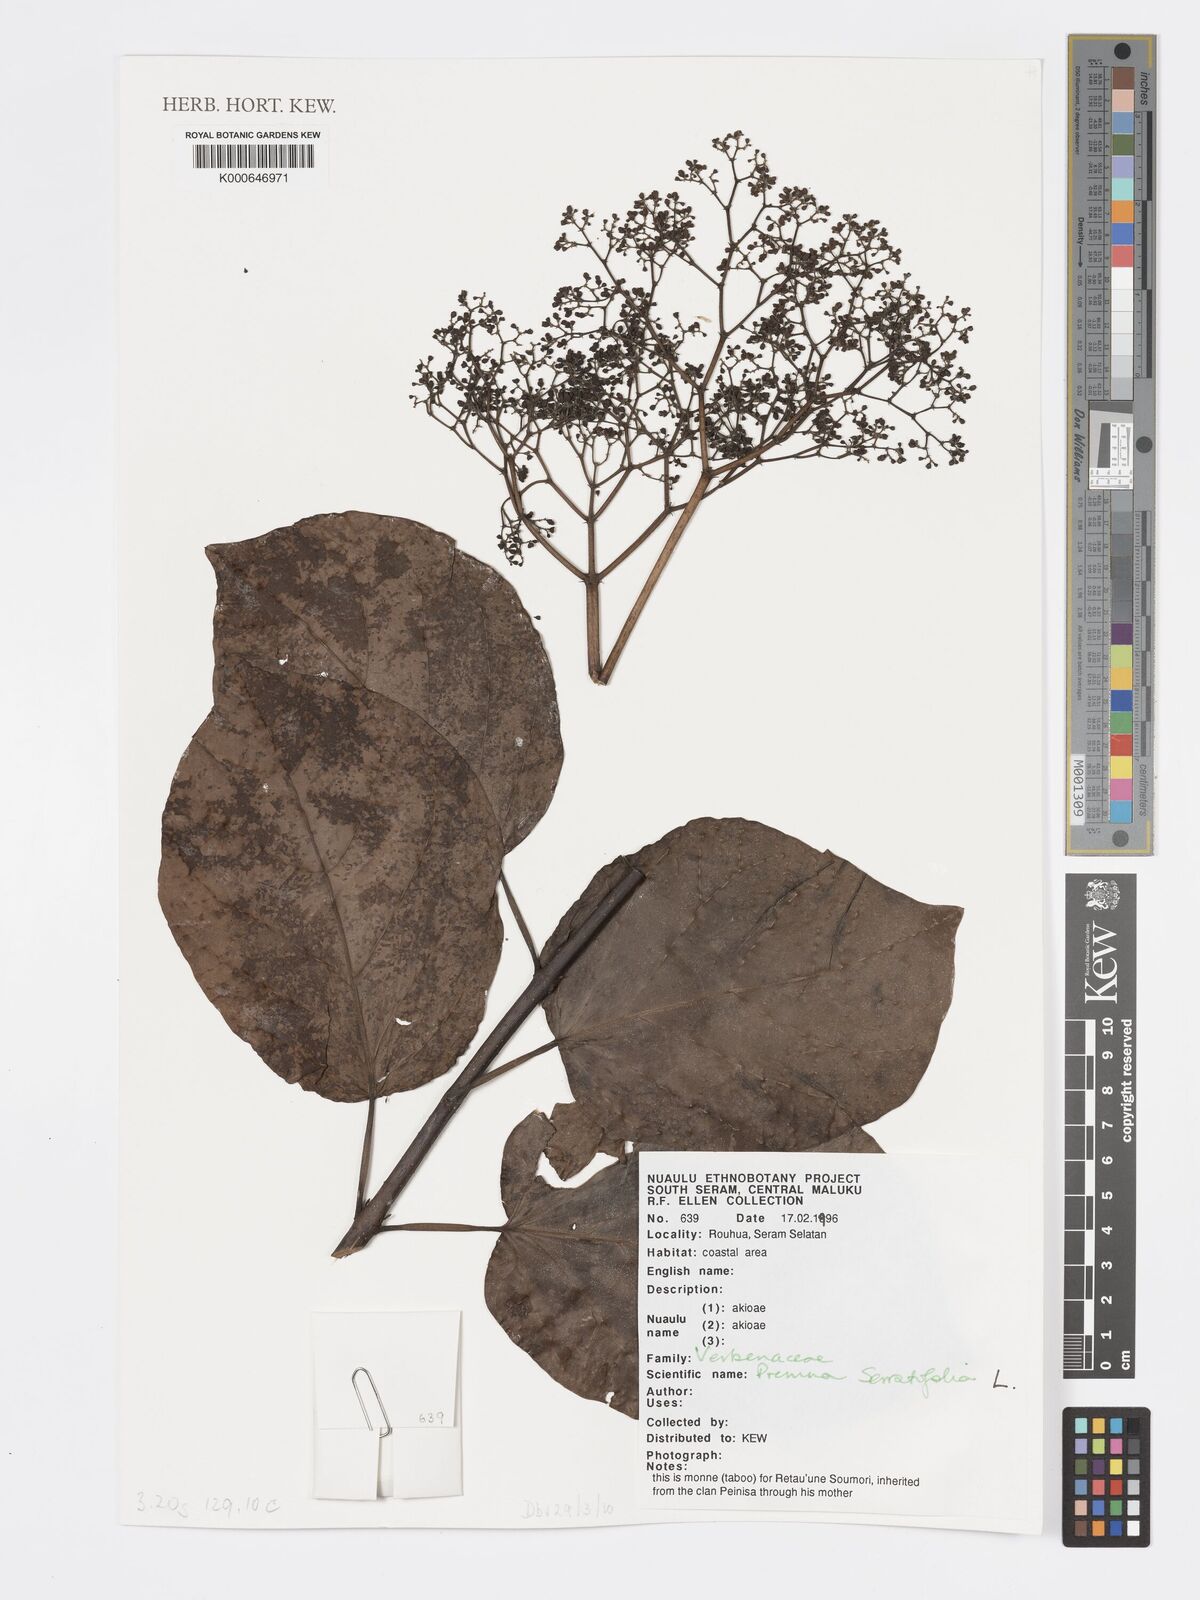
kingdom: Plantae
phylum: Tracheophyta
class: Magnoliopsida
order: Lamiales
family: Lamiaceae
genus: Premna
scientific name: Premna serratifolia
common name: Bastard guelder
